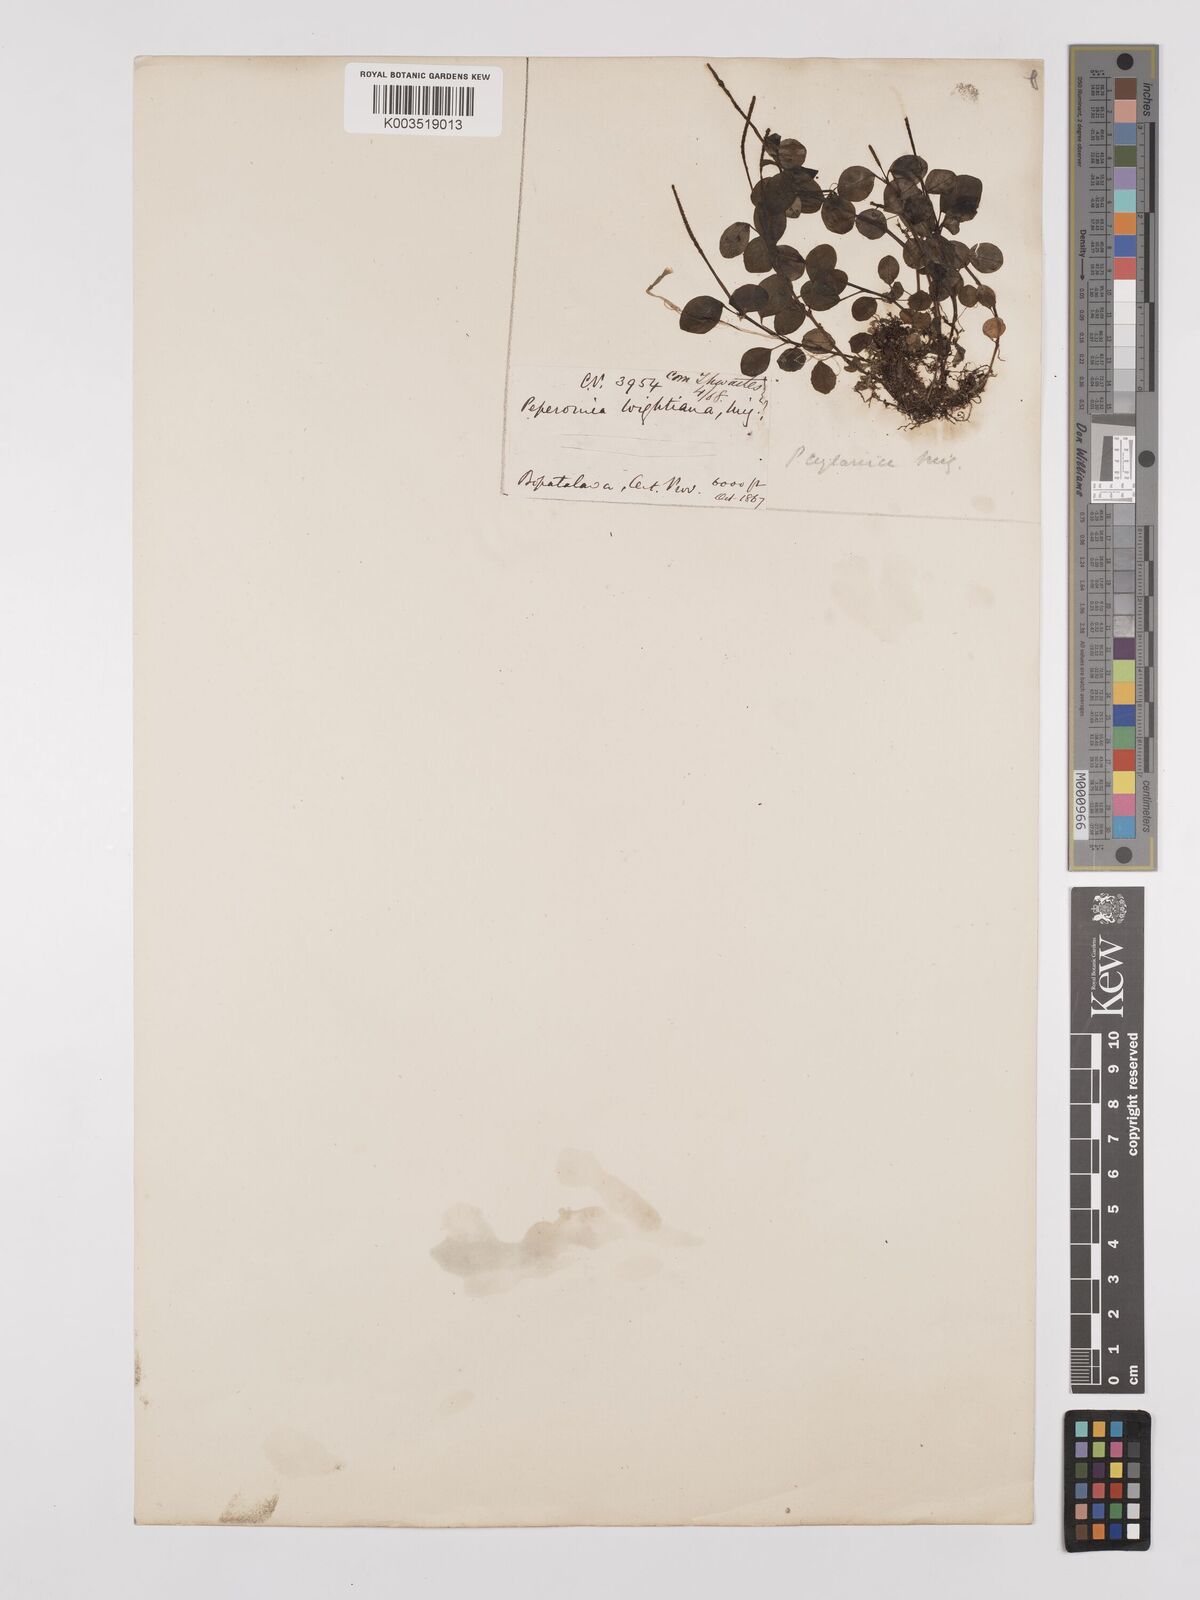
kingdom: Plantae
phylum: Tracheophyta
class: Magnoliopsida
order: Piperales
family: Piperaceae
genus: Peperomia
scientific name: Peperomia wightiana
